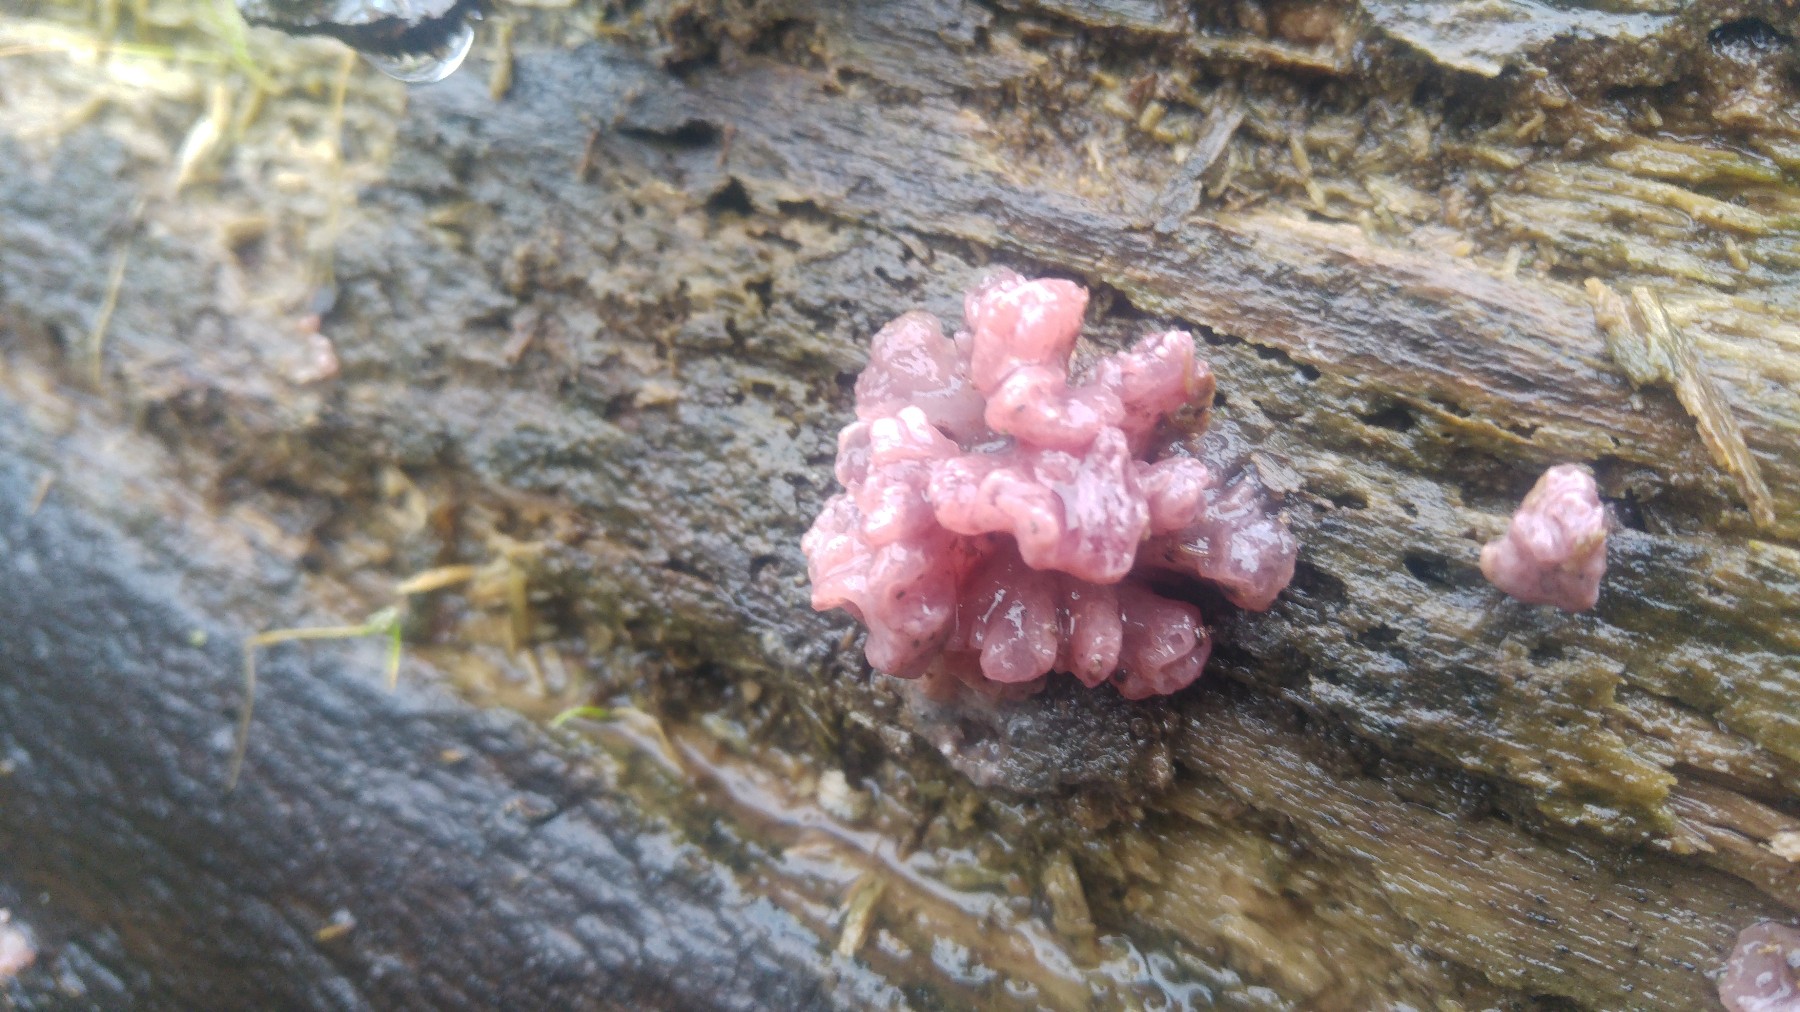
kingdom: Fungi
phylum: Ascomycota
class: Leotiomycetes
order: Helotiales
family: Gelatinodiscaceae
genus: Ascocoryne
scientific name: Ascocoryne sarcoides
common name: rødlilla sejskive
